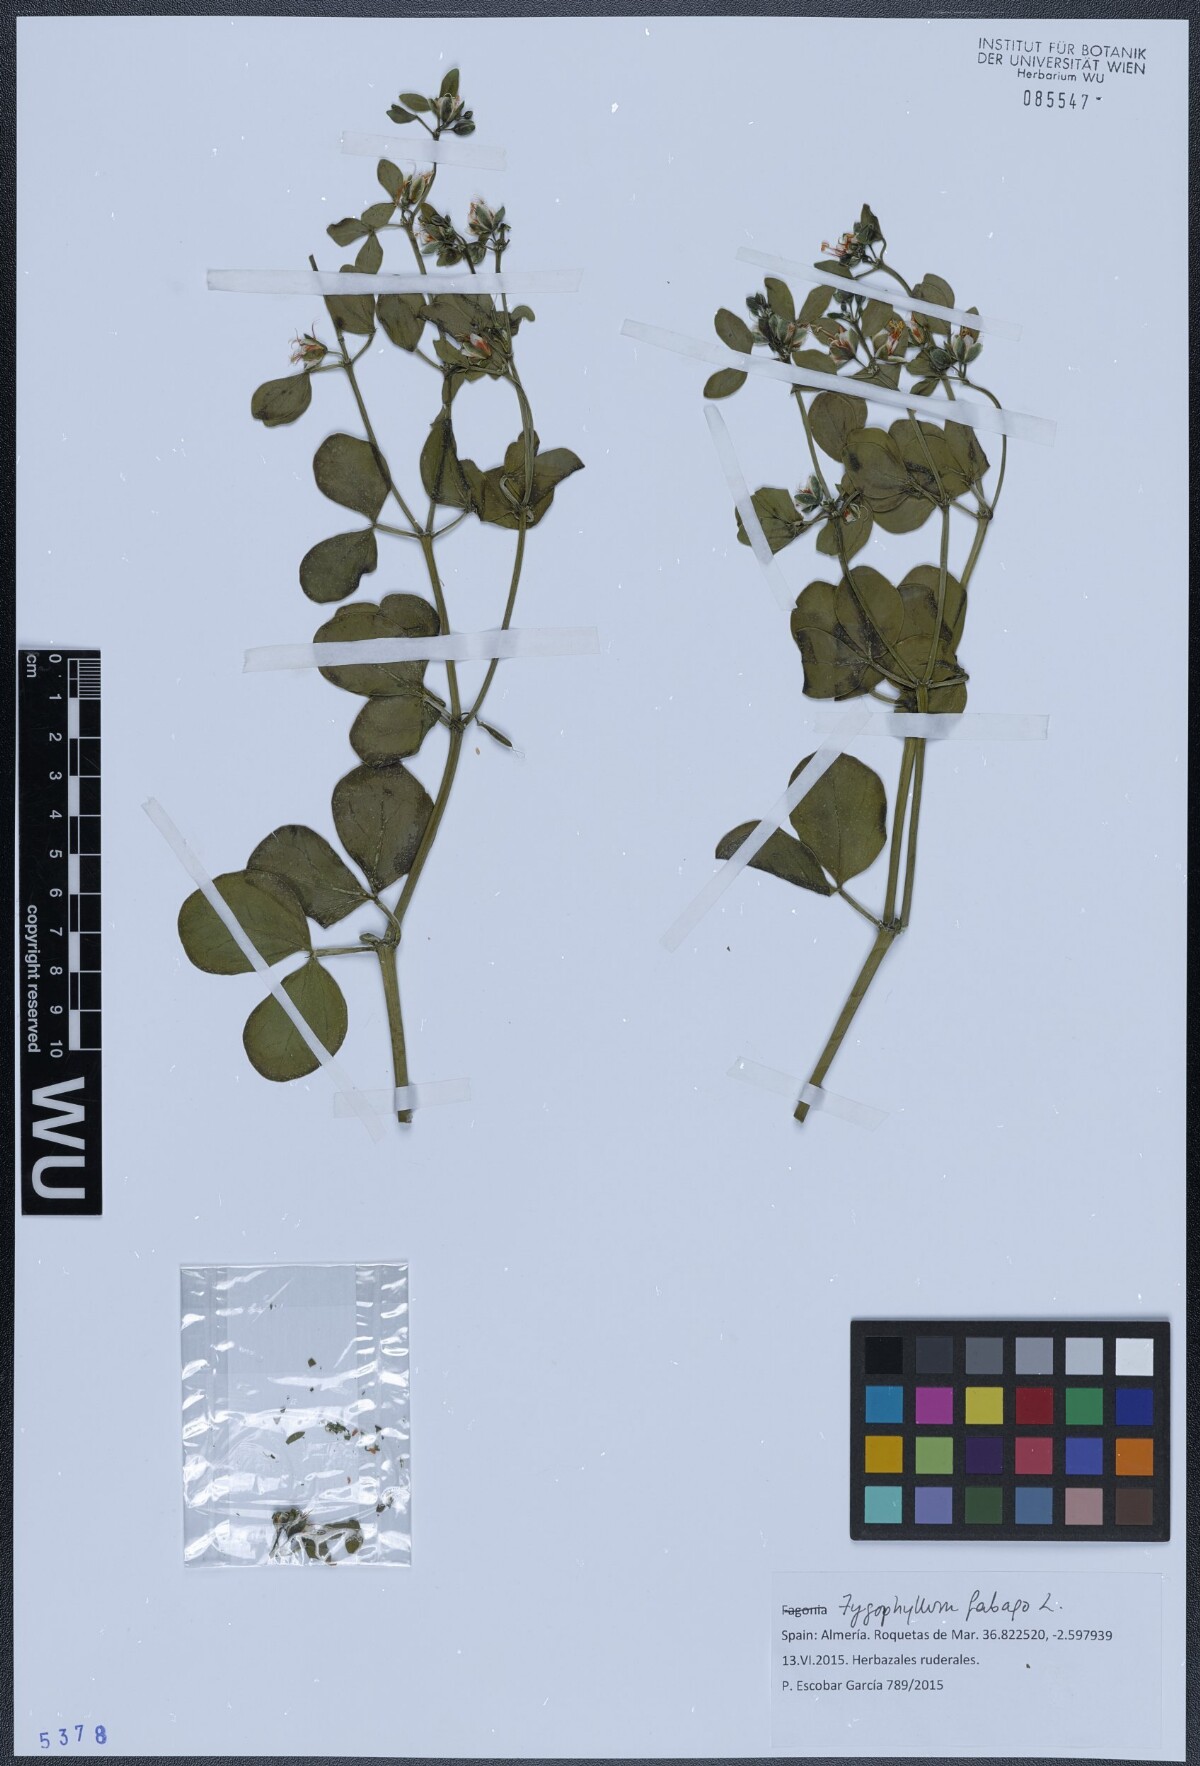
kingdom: Plantae
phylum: Tracheophyta
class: Magnoliopsida
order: Zygophyllales
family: Zygophyllaceae
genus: Zygophyllum
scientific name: Zygophyllum fabago
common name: Syrian beancaper
